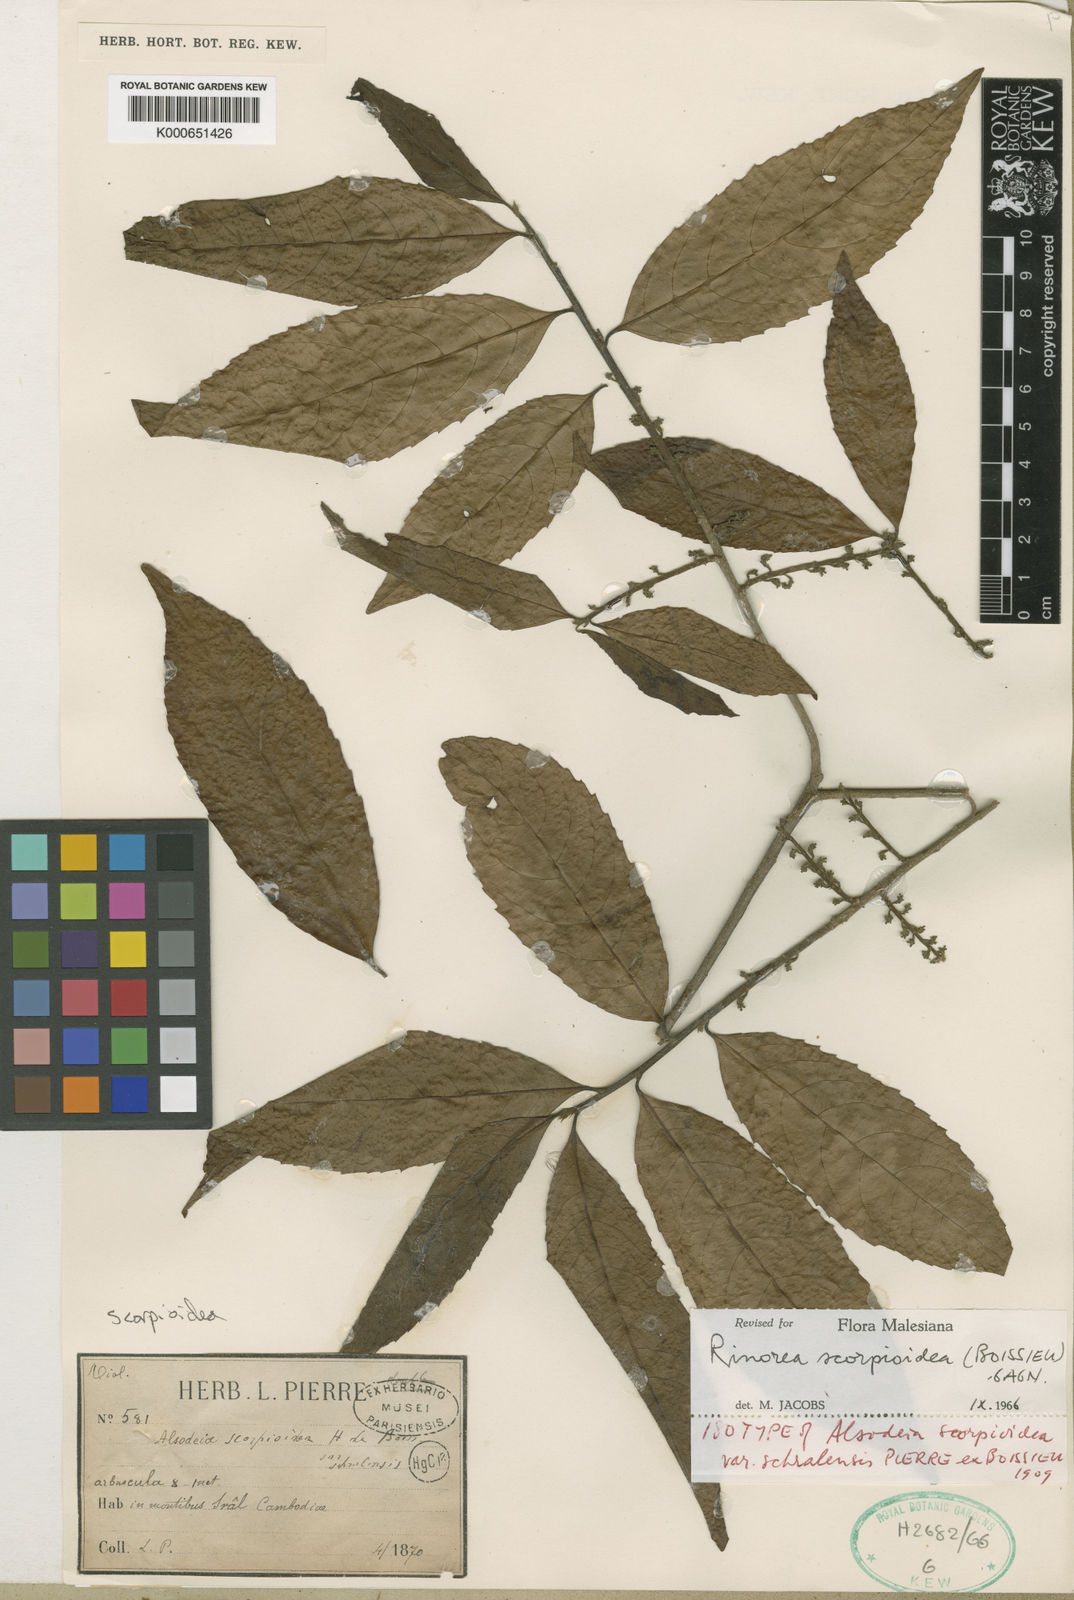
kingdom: Plantae
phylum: Tracheophyta
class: Magnoliopsida
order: Malpighiales
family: Violaceae
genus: Rinorea
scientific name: Rinorea scorpioidea
